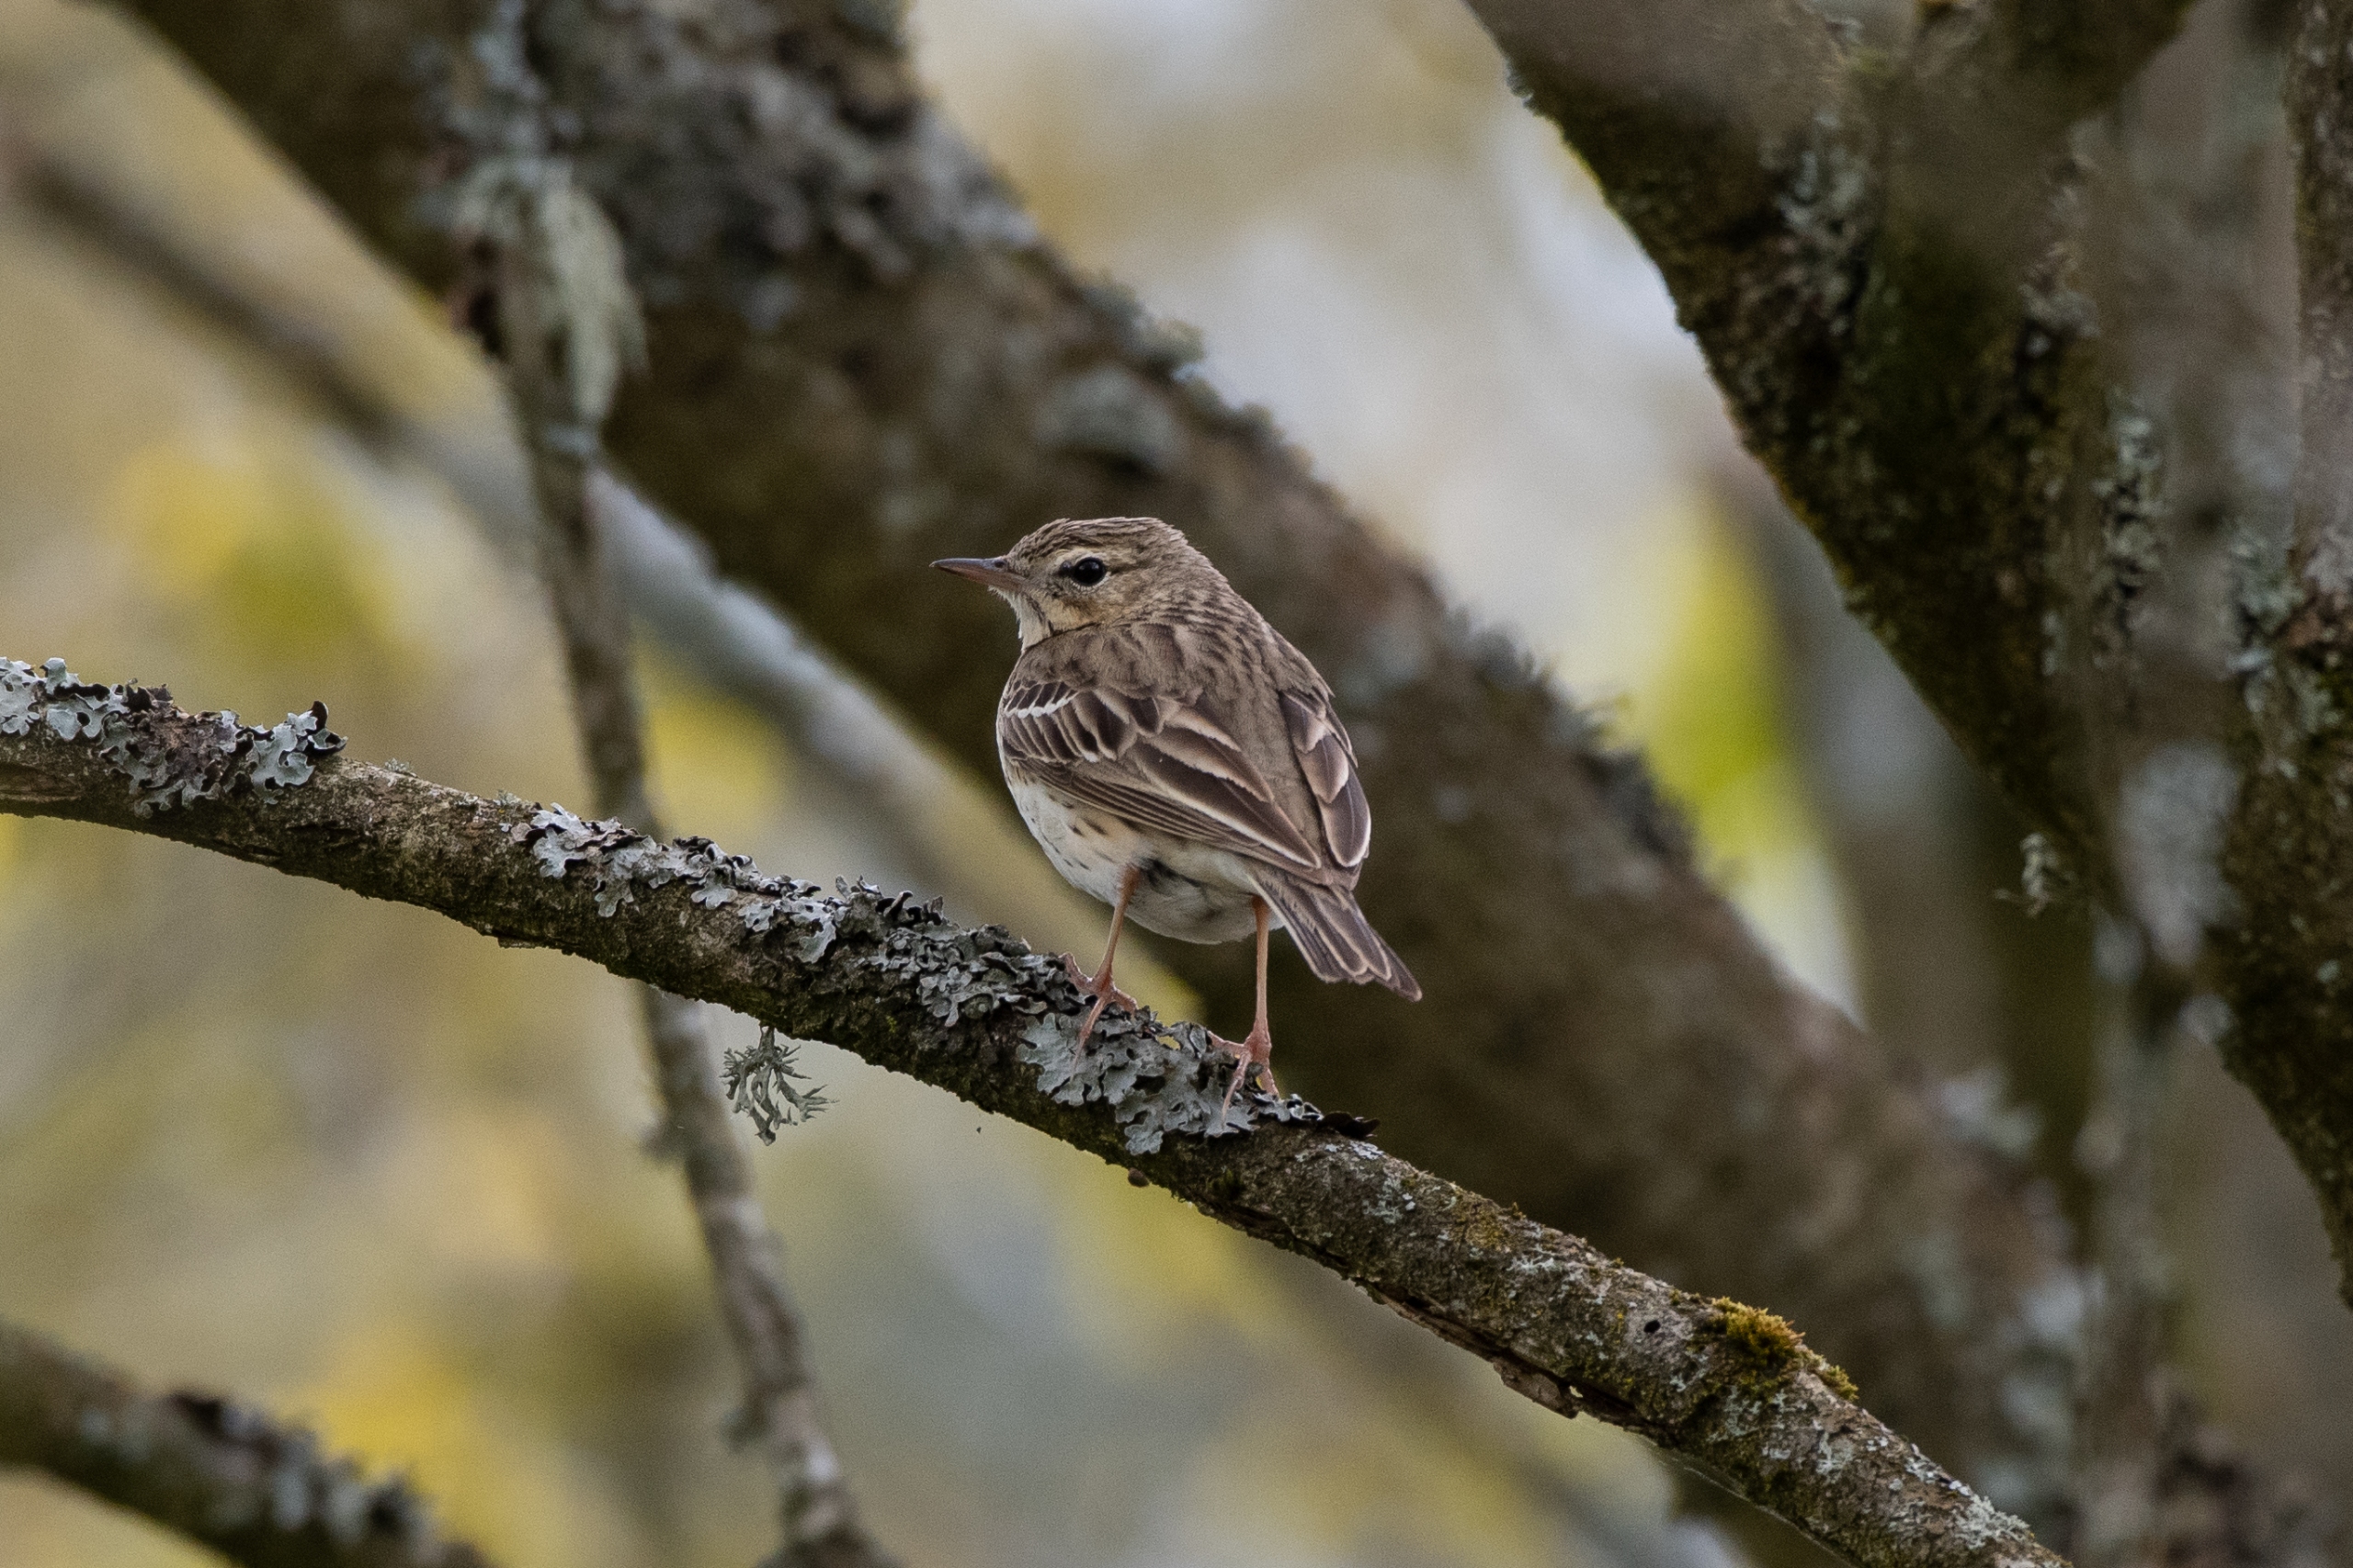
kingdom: Animalia
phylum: Chordata
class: Aves
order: Passeriformes
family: Motacillidae
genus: Anthus
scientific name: Anthus trivialis
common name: Skovpiber
